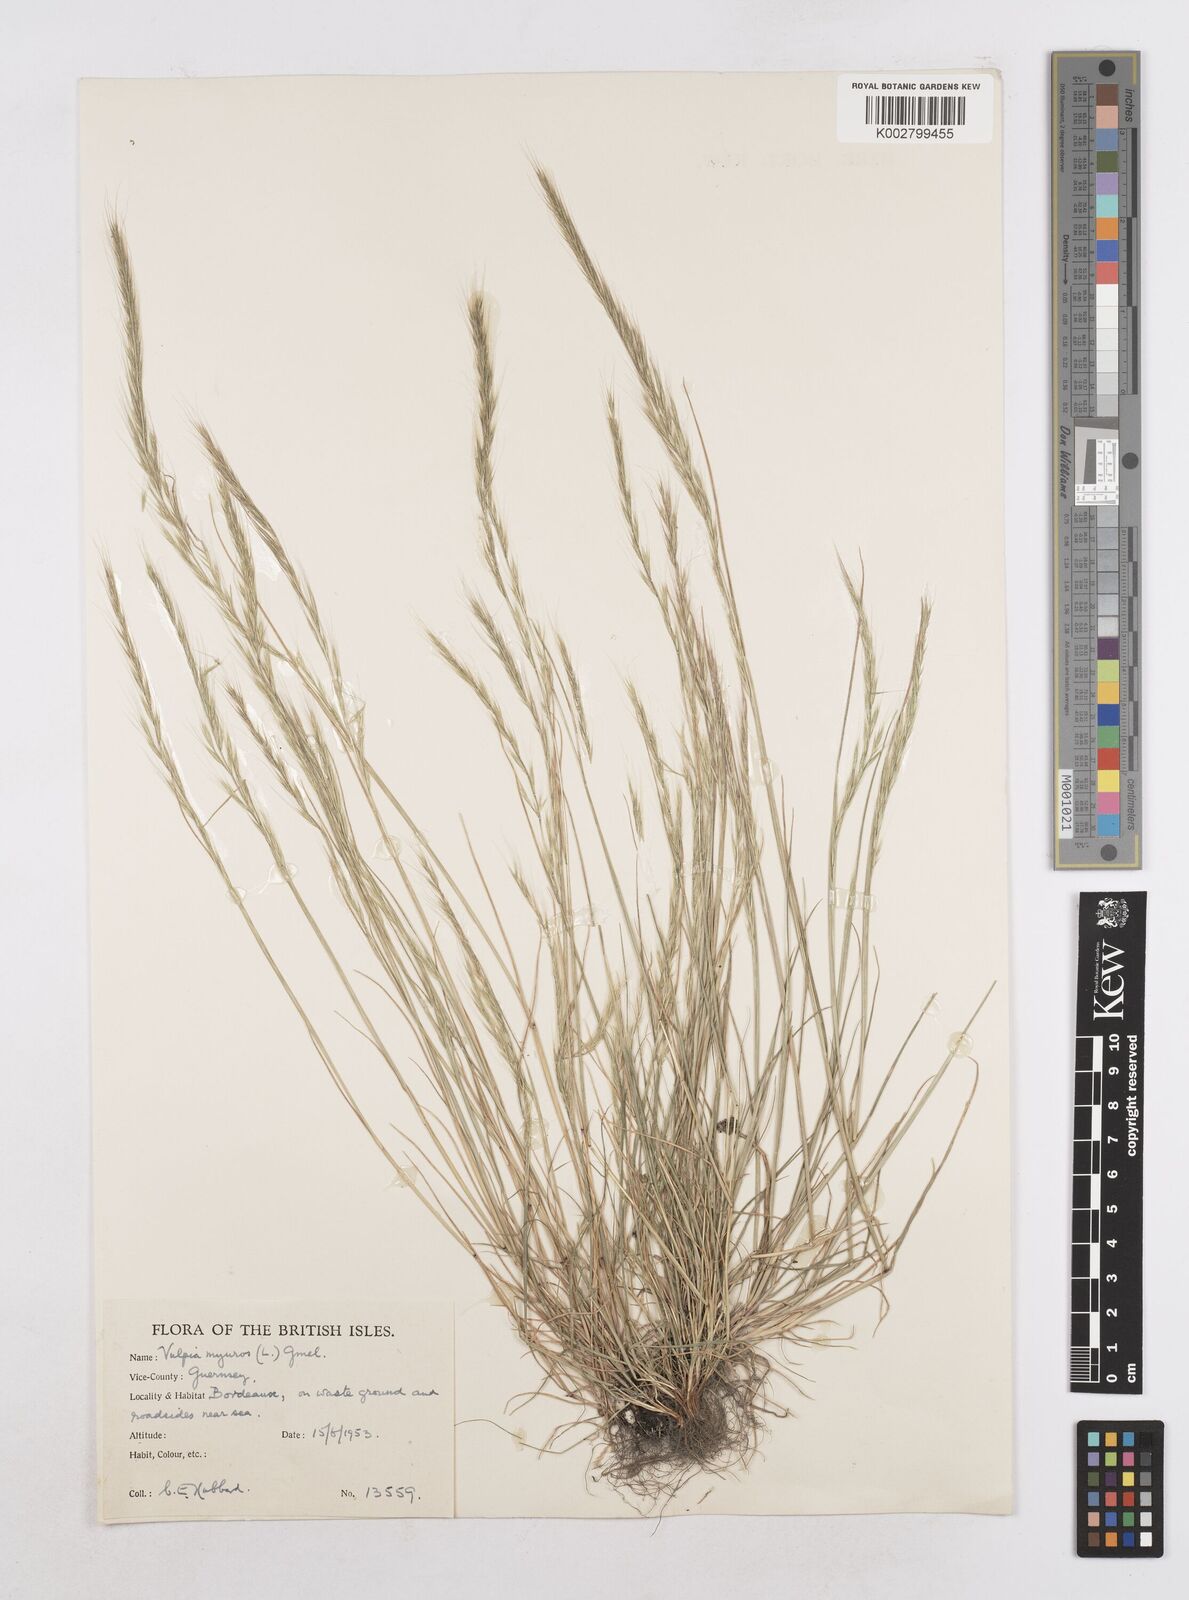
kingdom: Plantae
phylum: Tracheophyta
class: Liliopsida
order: Poales
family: Poaceae
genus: Festuca
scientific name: Festuca myuros
